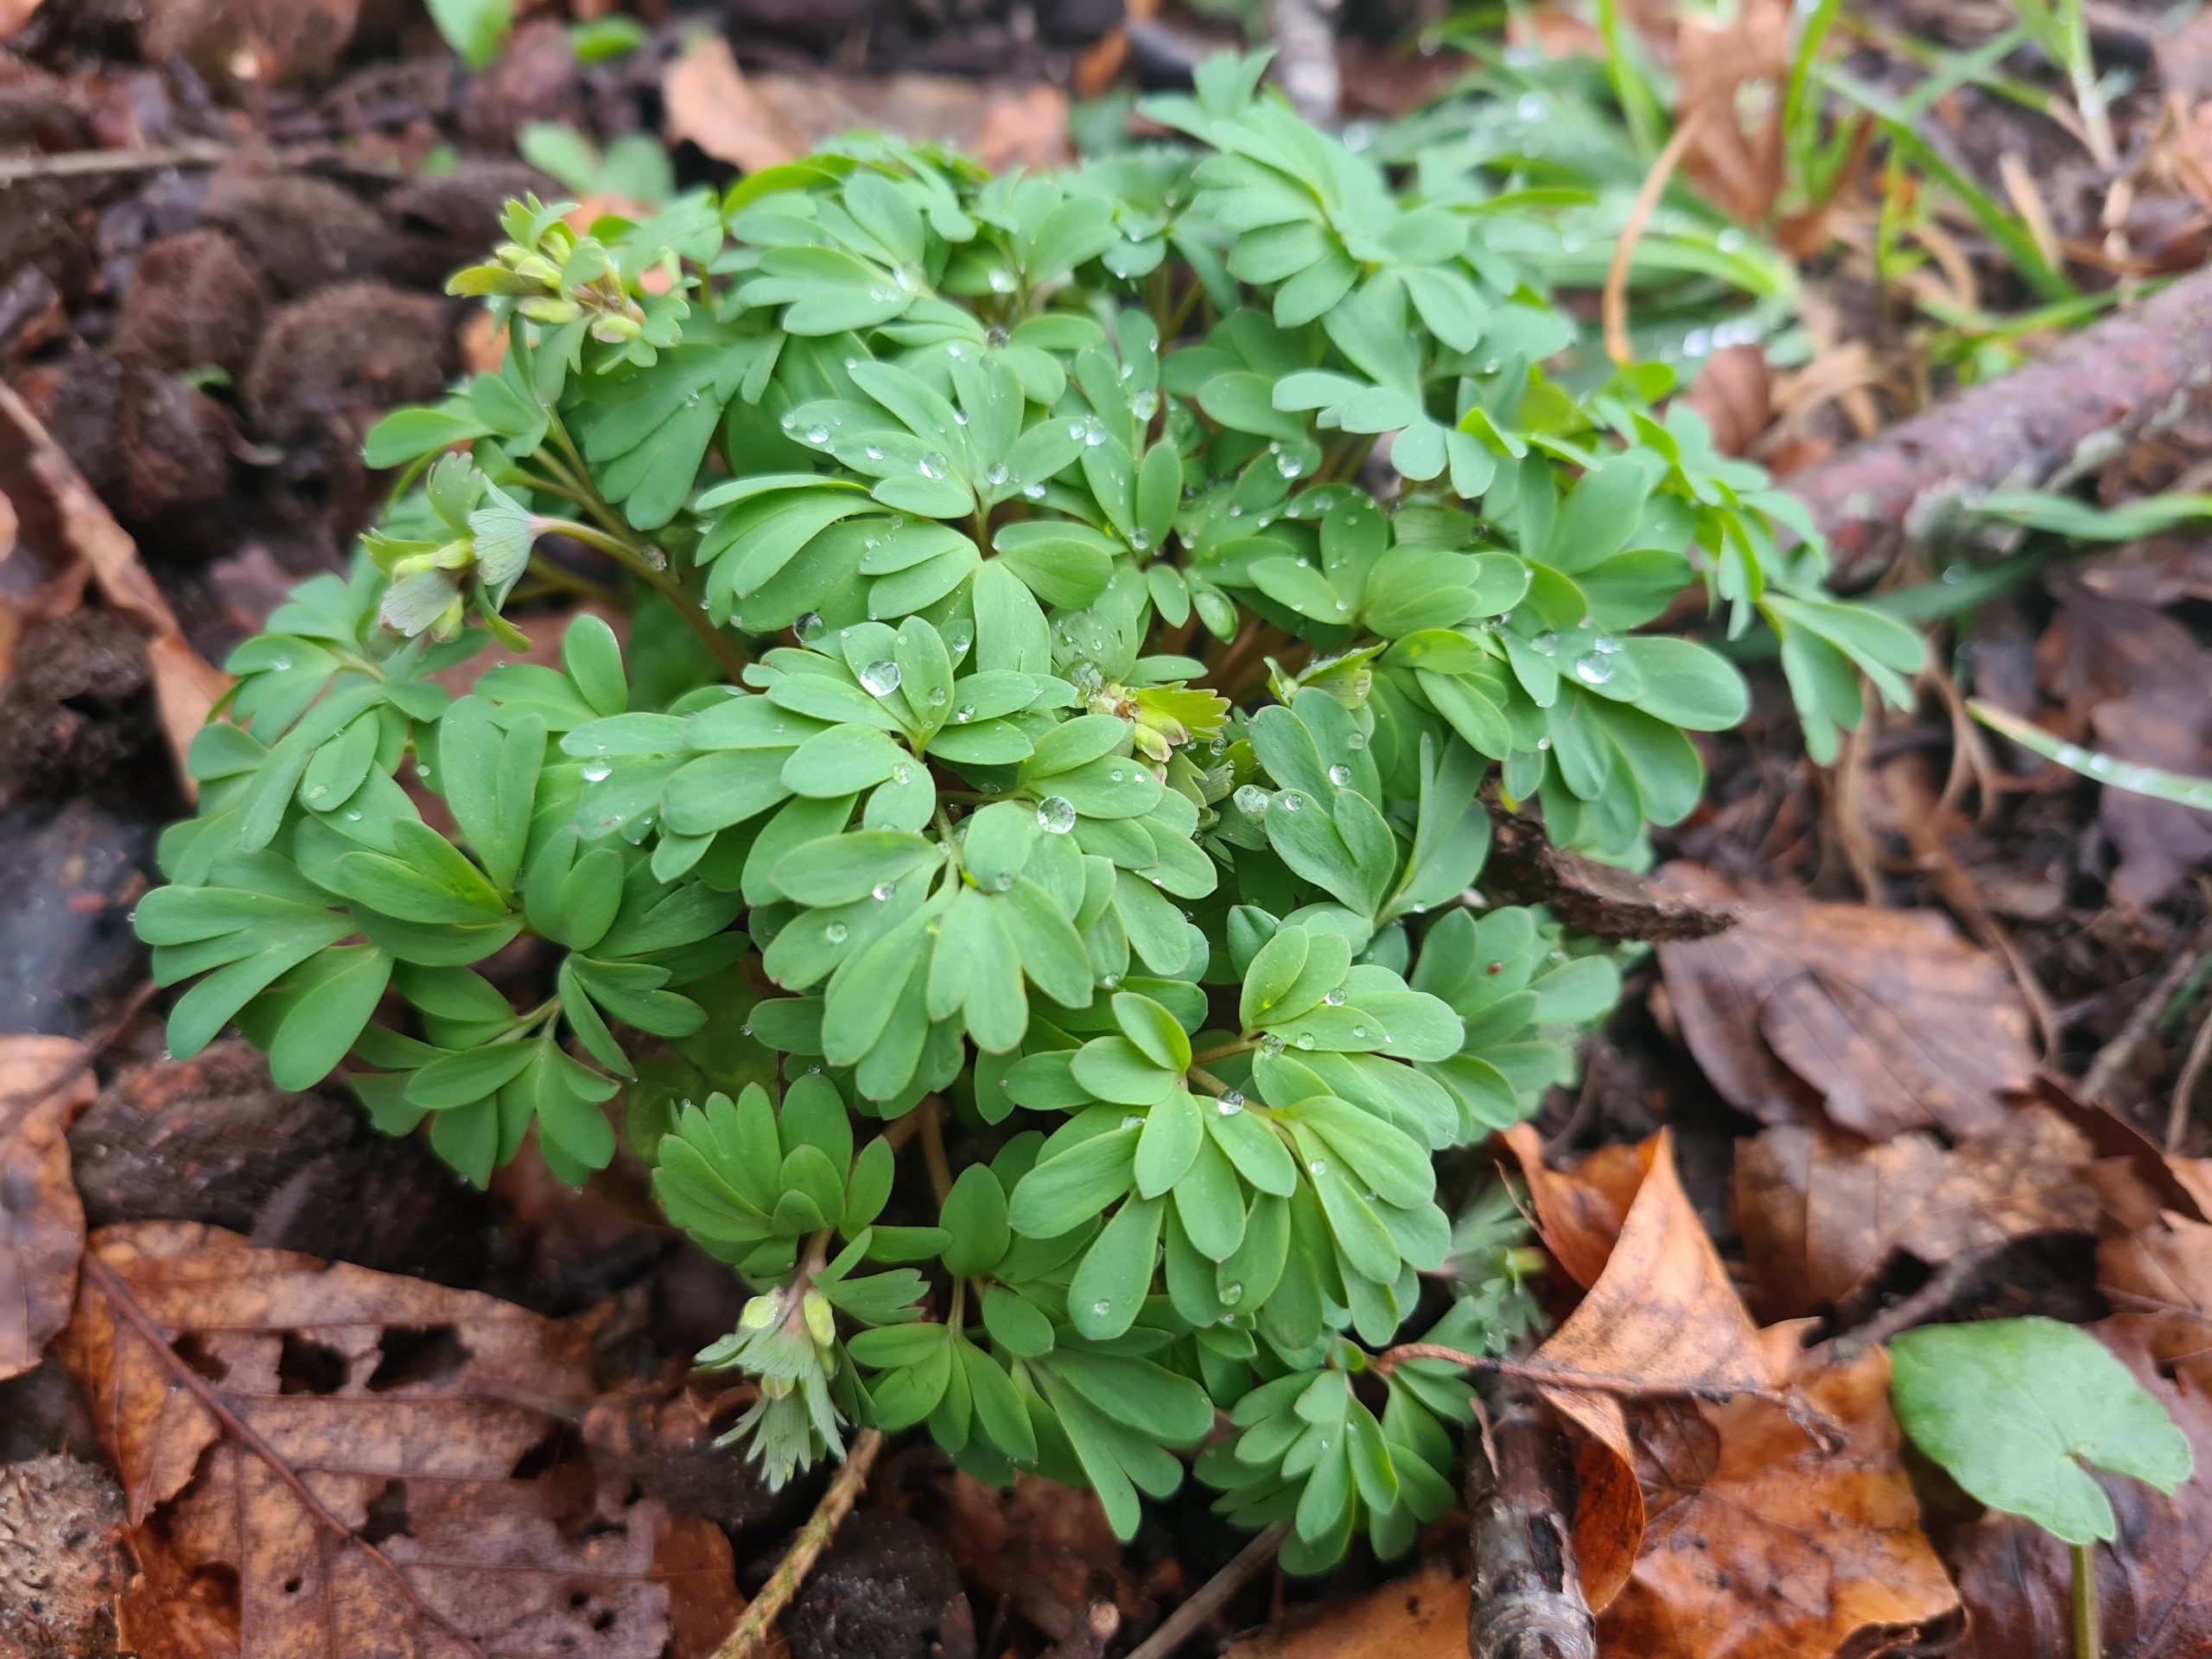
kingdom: Plantae
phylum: Tracheophyta
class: Magnoliopsida
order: Ranunculales
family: Papaveraceae
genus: Corydalis
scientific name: Corydalis solida
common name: Langstilket lærkespore
